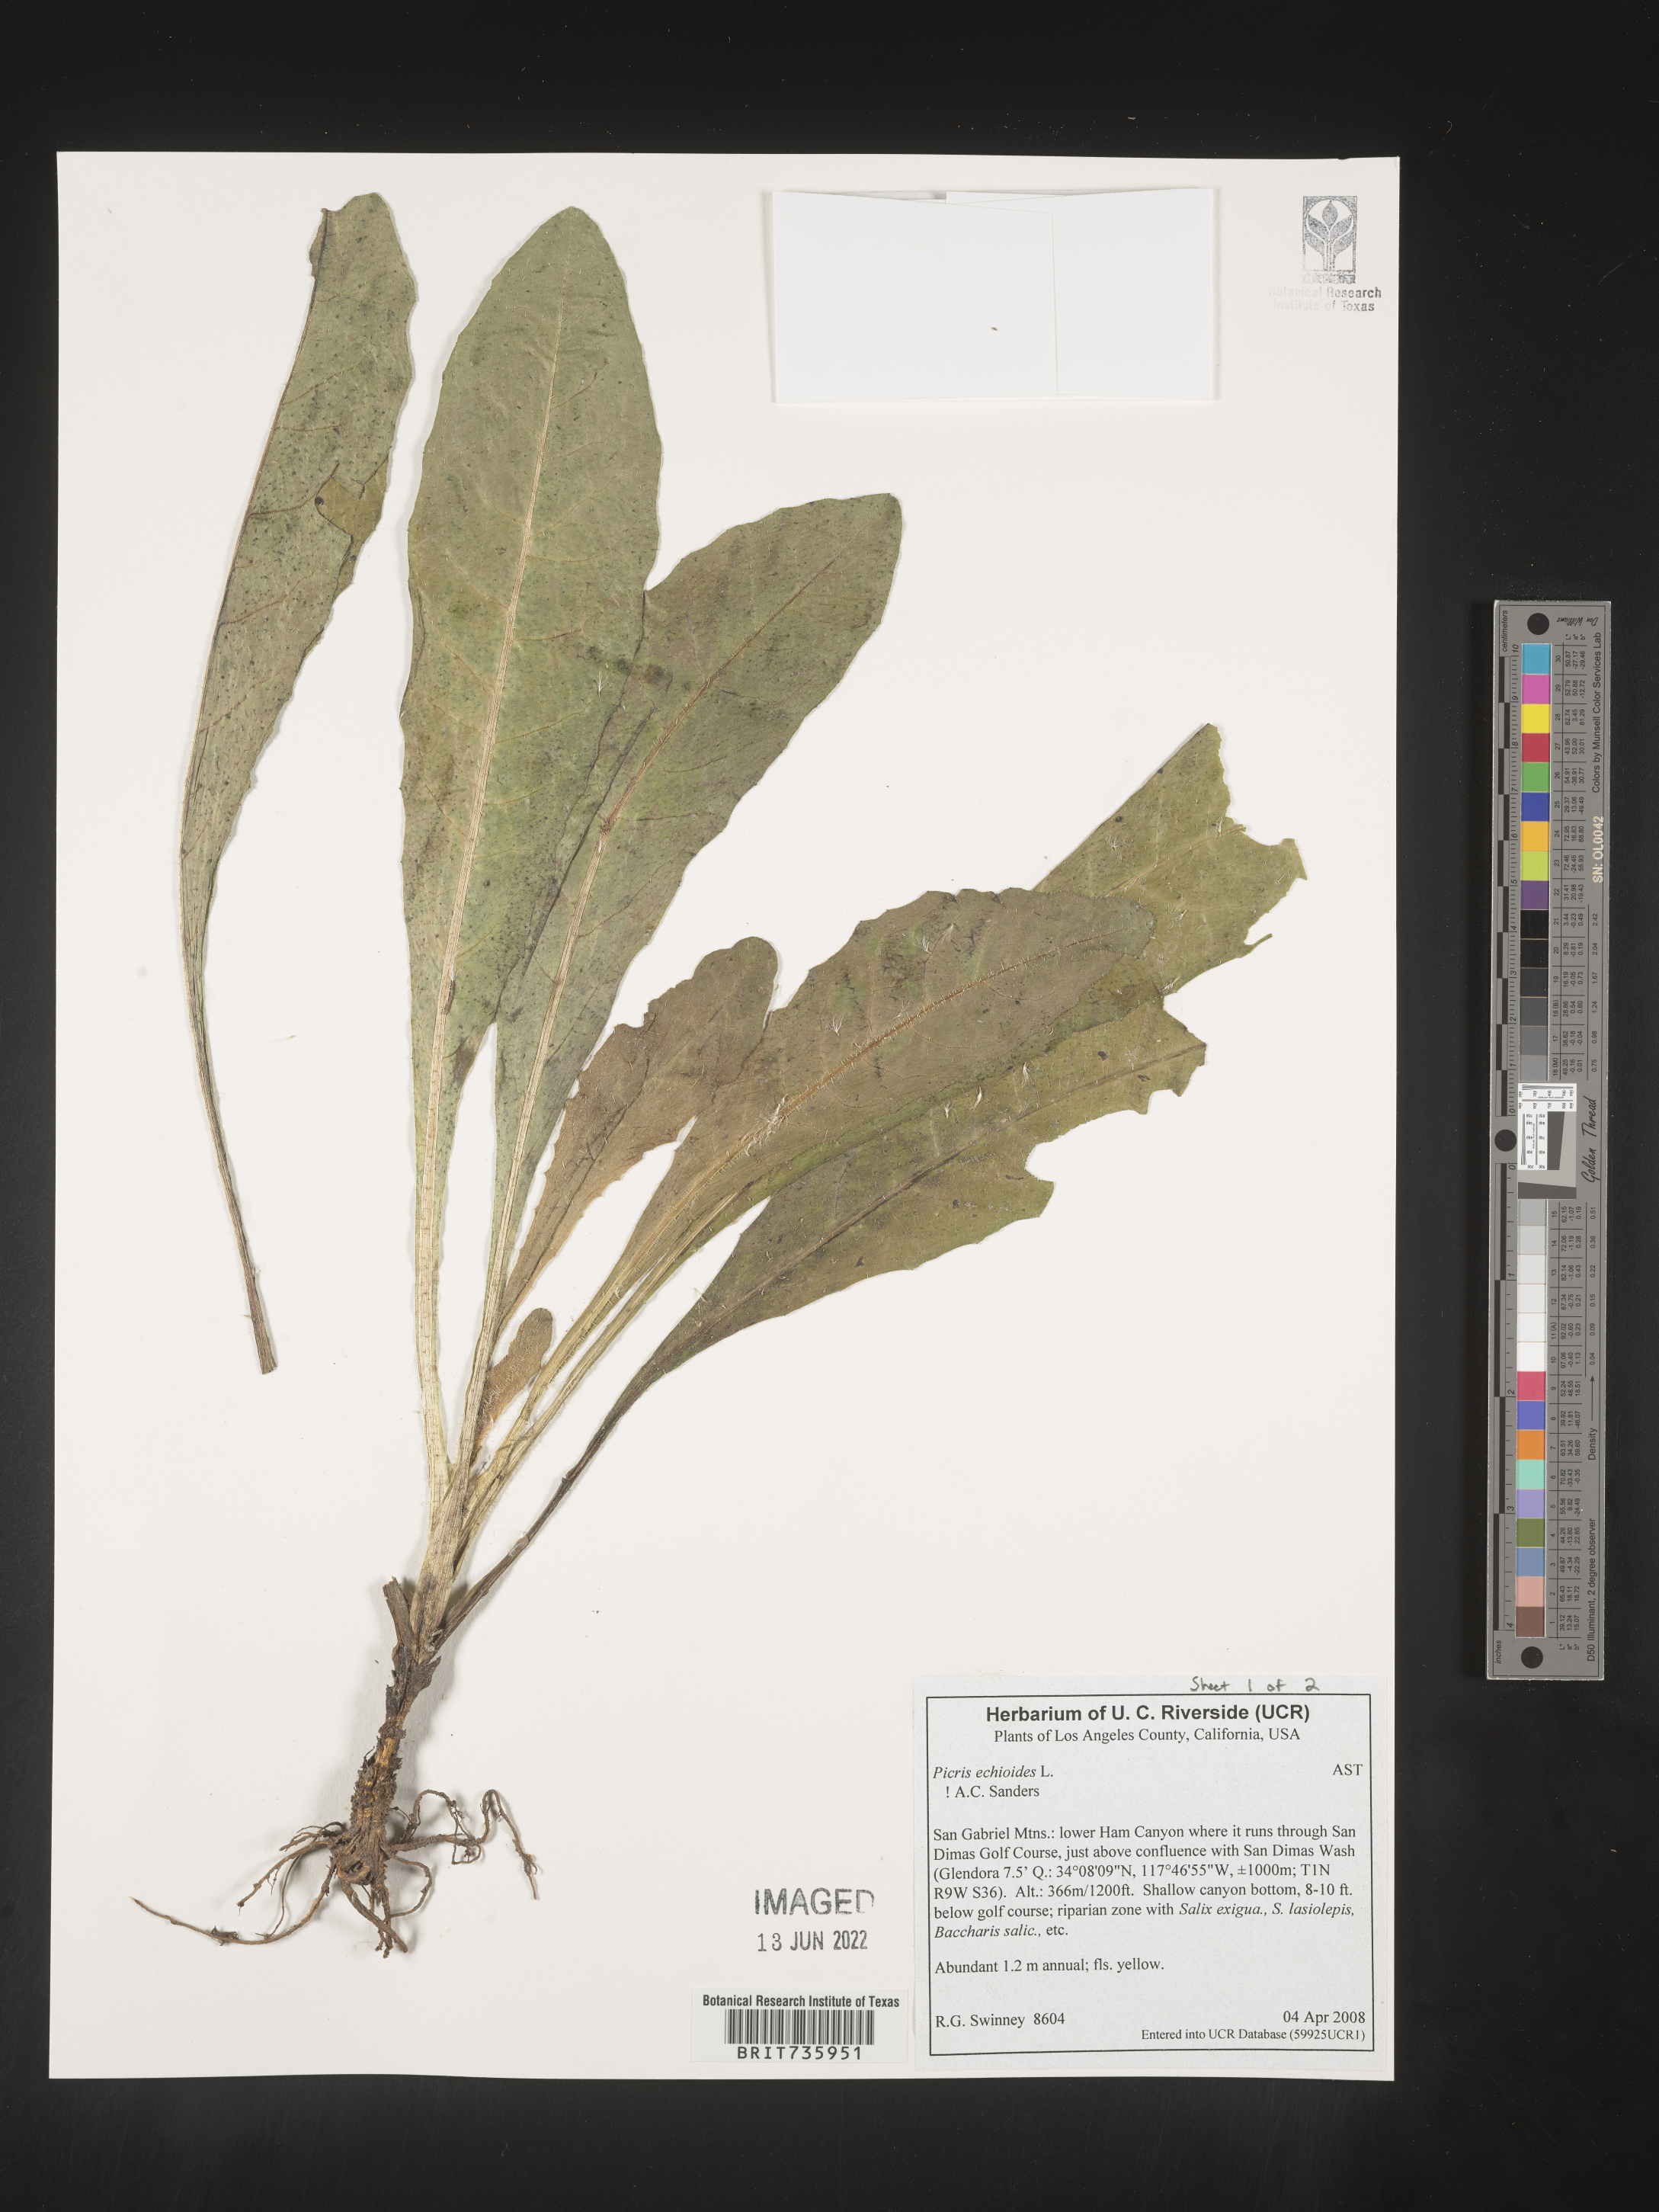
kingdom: Plantae
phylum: Tracheophyta
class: Magnoliopsida
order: Asterales
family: Asteraceae
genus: Picris
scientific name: Picris
